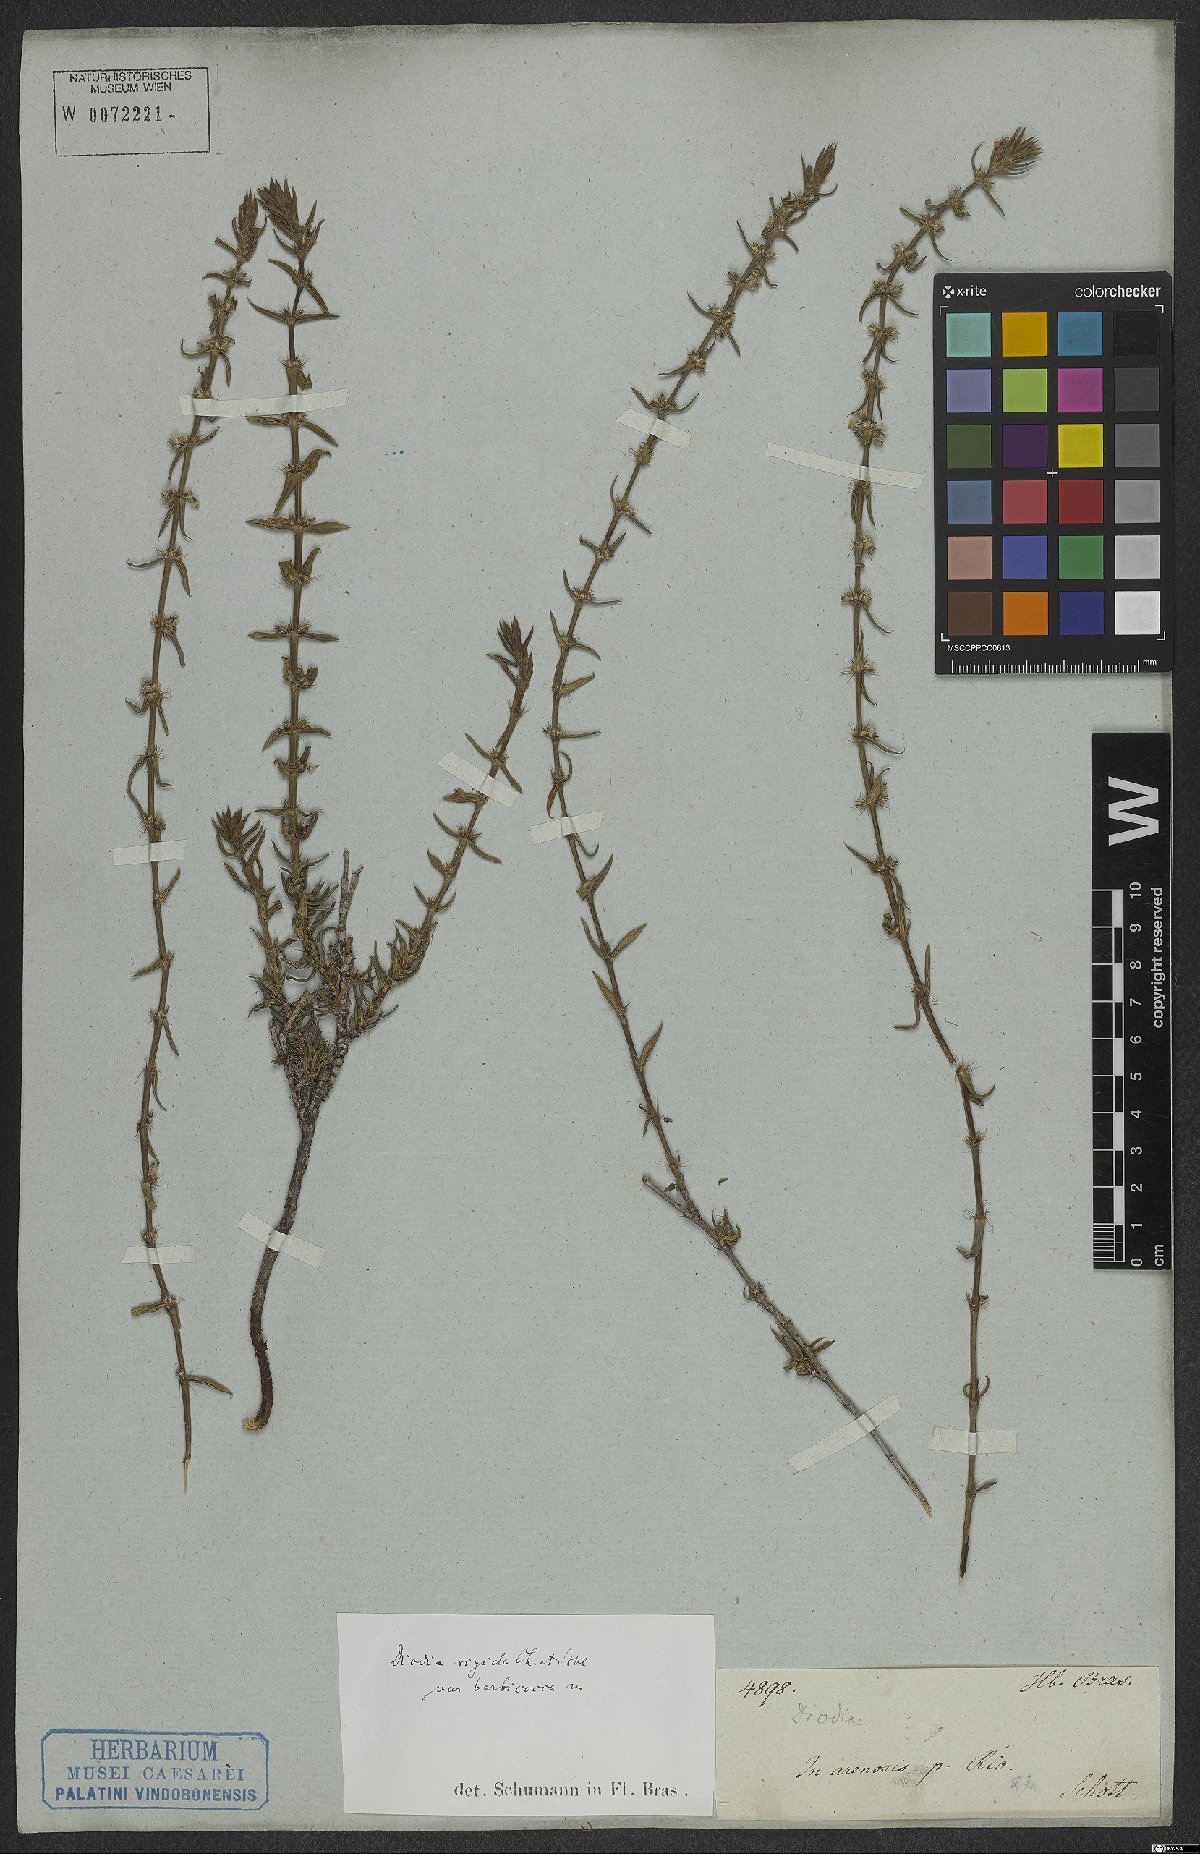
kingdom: Plantae
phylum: Tracheophyta
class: Magnoliopsida
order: Gentianales
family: Rubiaceae
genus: Hexasepalum
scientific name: Hexasepalum apiculatum
